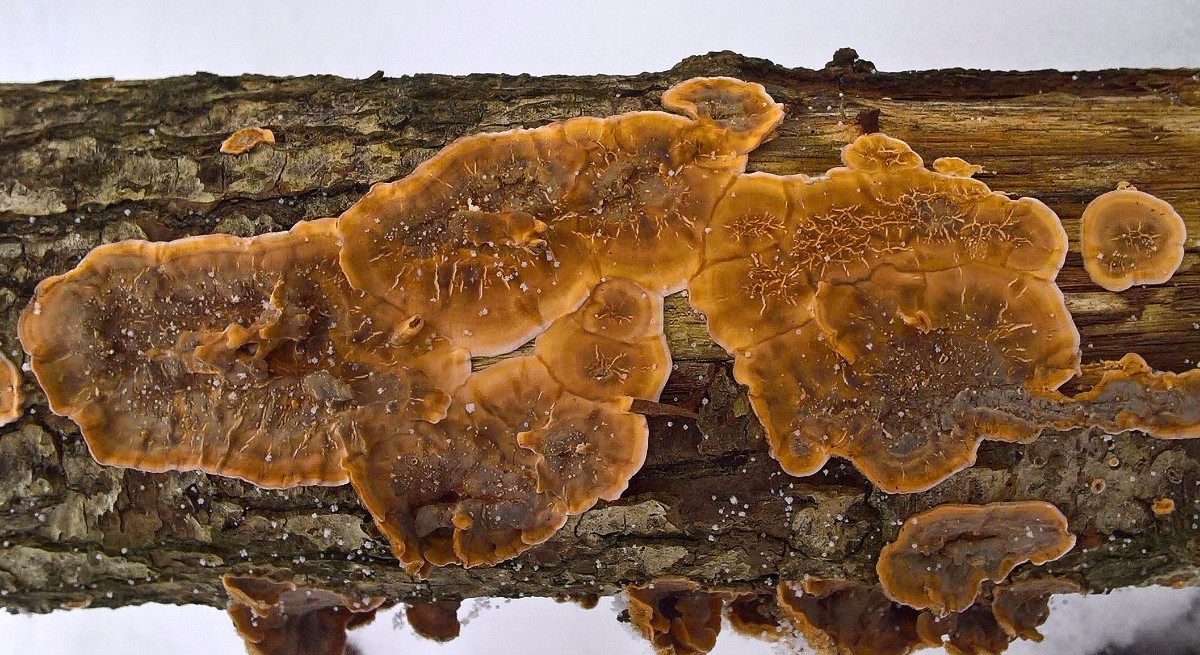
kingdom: Fungi
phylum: Basidiomycota
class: Agaricomycetes
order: Russulales
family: Stereaceae
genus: Stereum
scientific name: Stereum hirsutum
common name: håret lædersvamp
